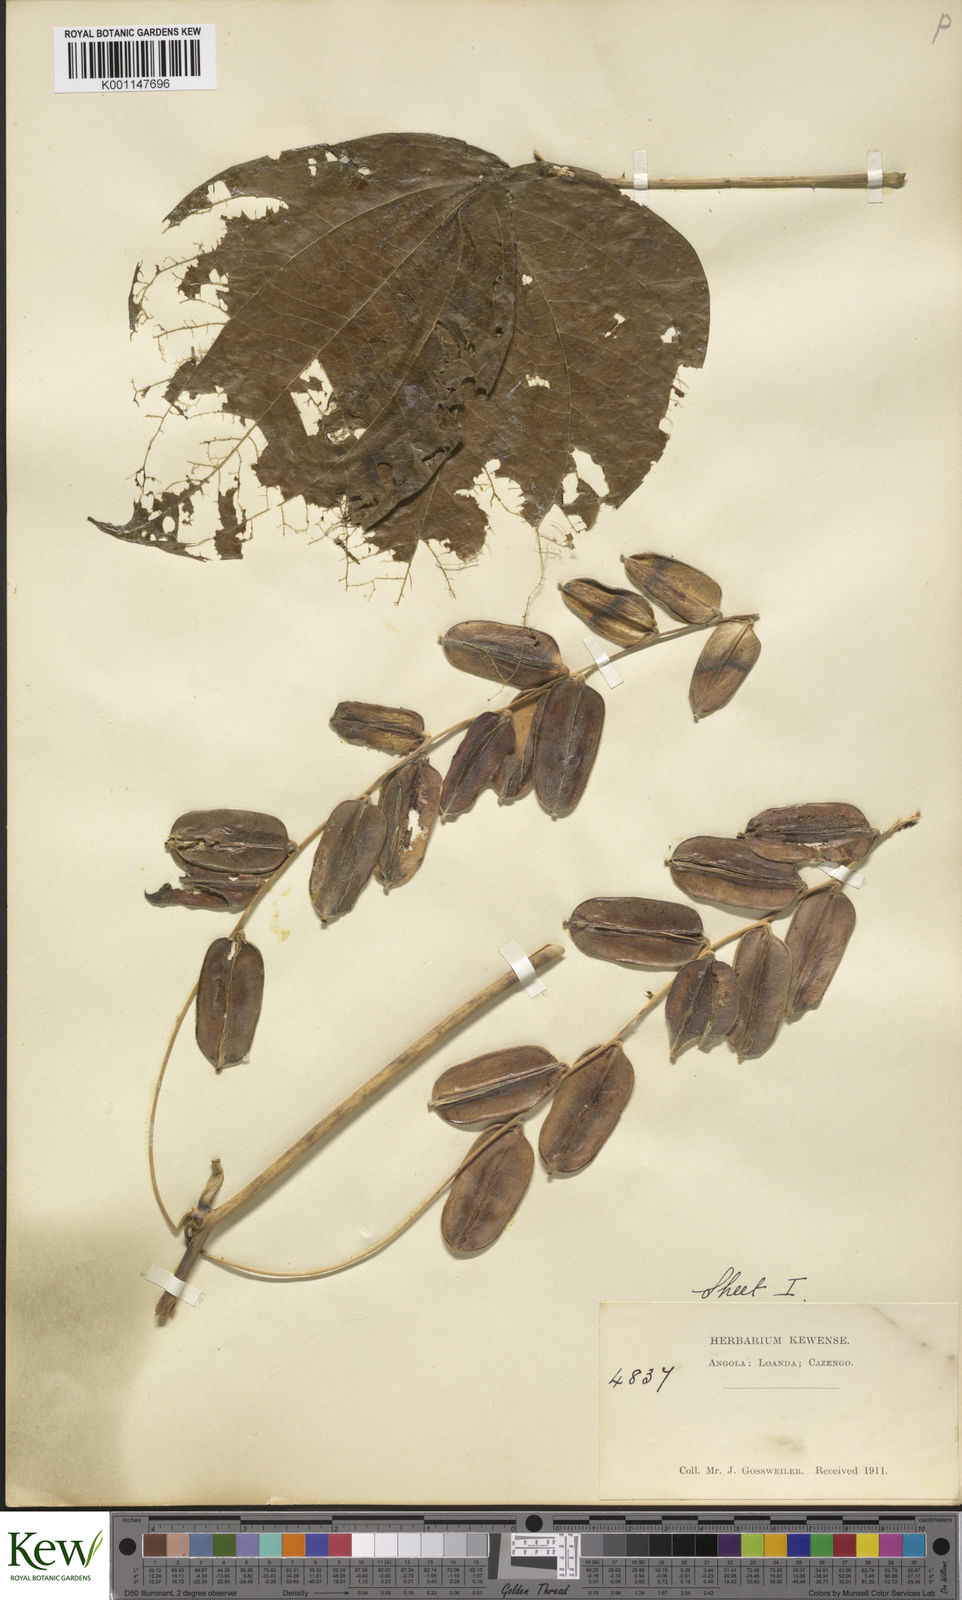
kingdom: Plantae
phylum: Tracheophyta
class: Liliopsida
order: Dioscoreales
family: Dioscoreaceae
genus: Dioscorea
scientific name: Dioscorea dumetorum
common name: African bitter yam
